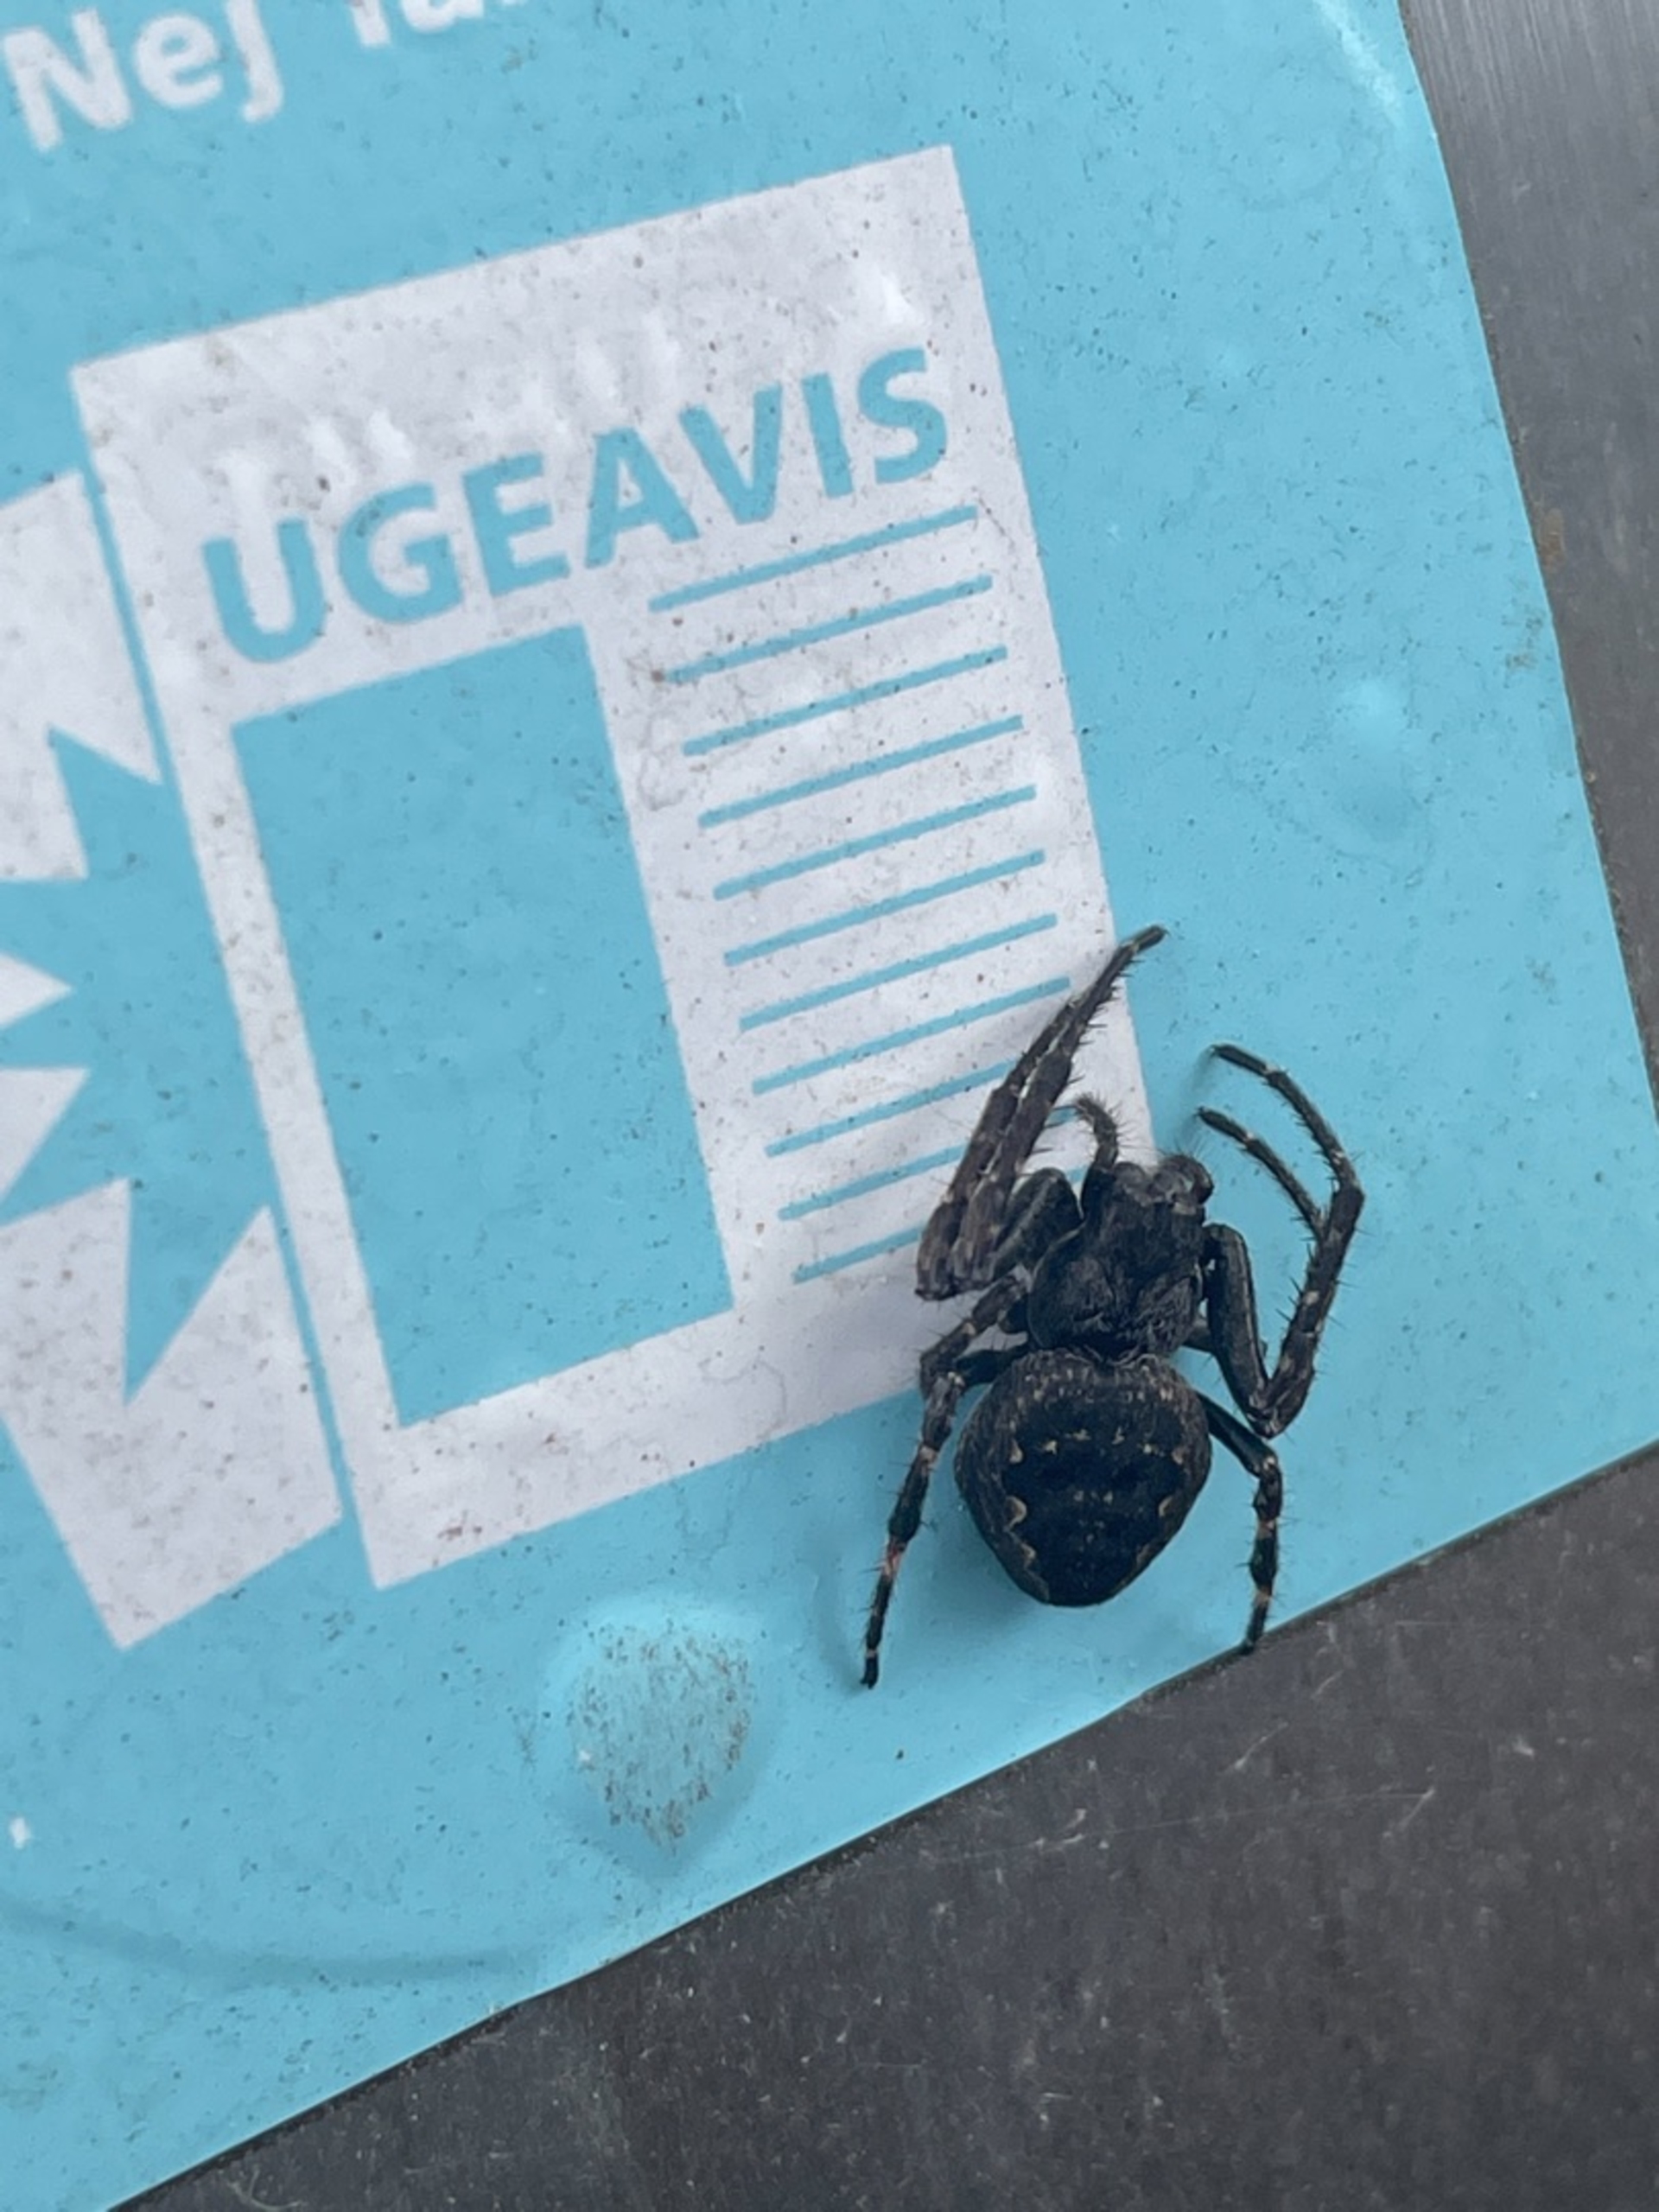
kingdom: Animalia
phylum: Arthropoda
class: Arachnida
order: Araneae
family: Araneidae
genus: Nuctenea
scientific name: Nuctenea umbratica
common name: Flad hjulspinder
